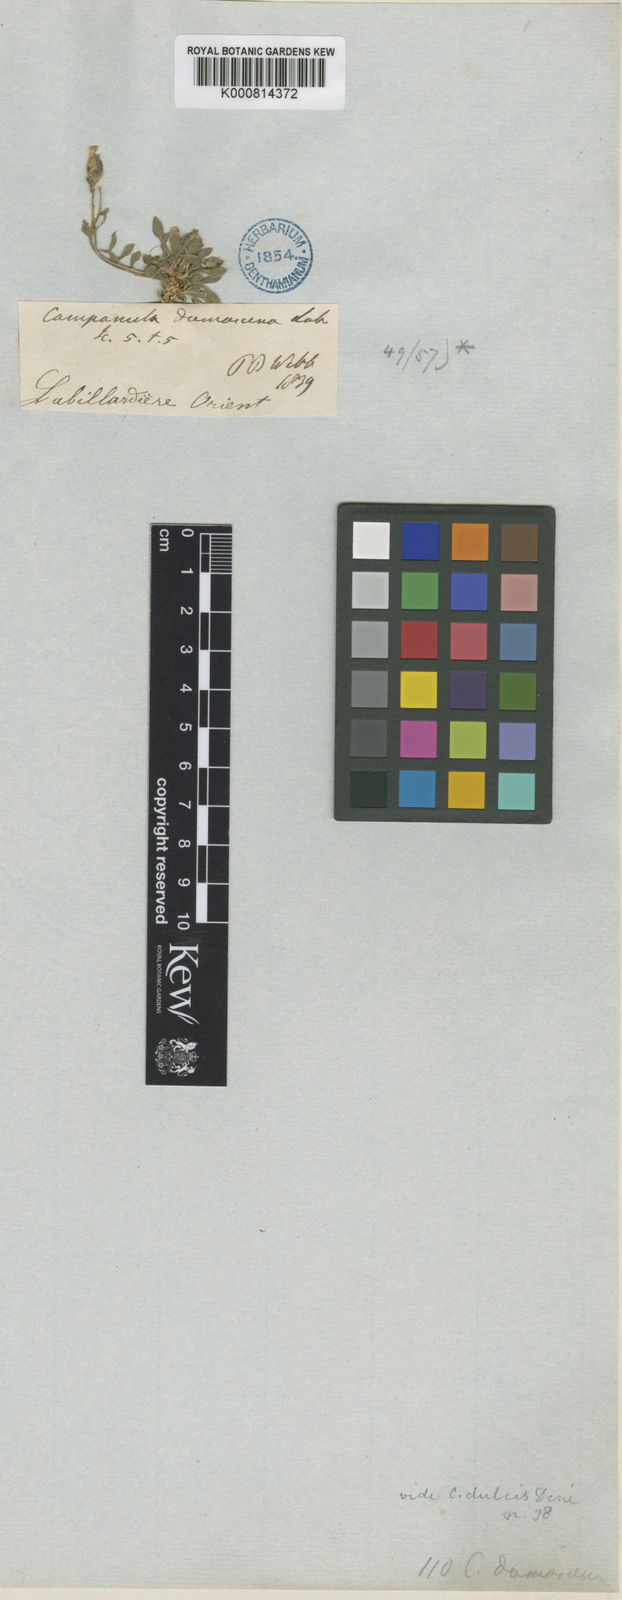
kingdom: Plantae
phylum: Tracheophyta
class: Magnoliopsida
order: Asterales
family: Campanulaceae
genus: Campanula
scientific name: Campanula damascena
